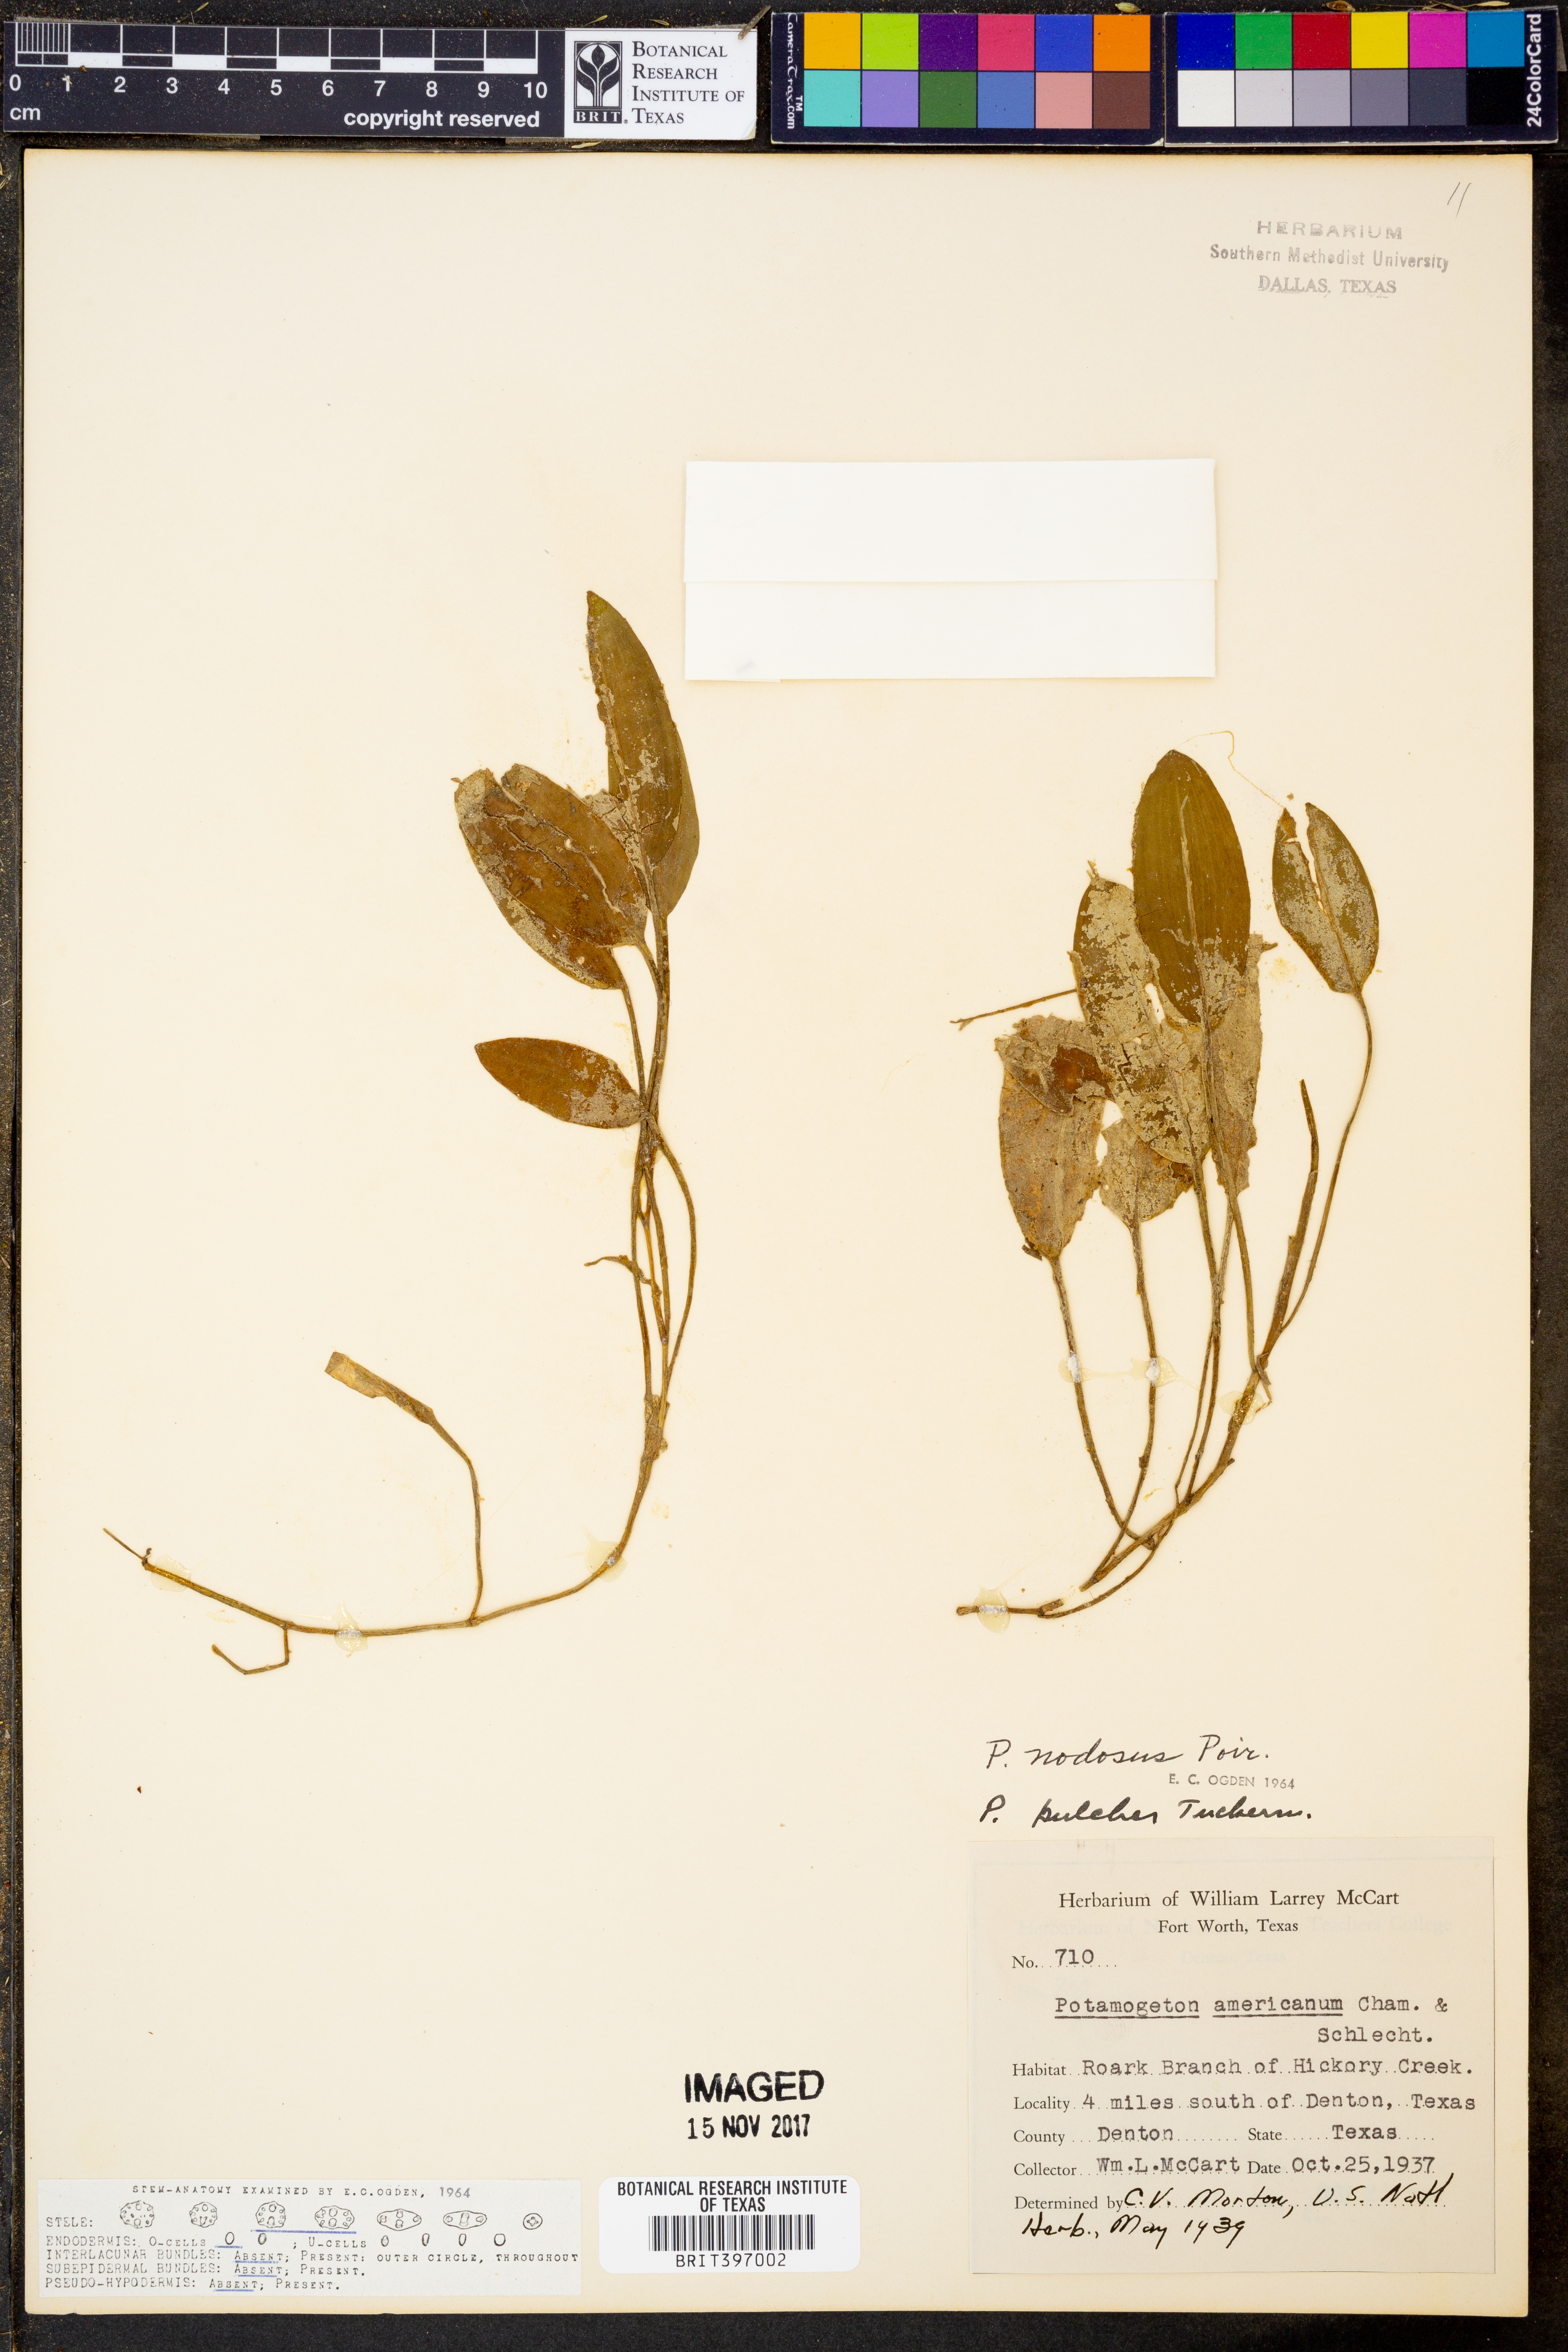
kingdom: Plantae
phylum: Tracheophyta
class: Liliopsida
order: Alismatales
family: Potamogetonaceae
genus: Potamogeton
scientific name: Potamogeton nodosus
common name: Loddon pondweed
